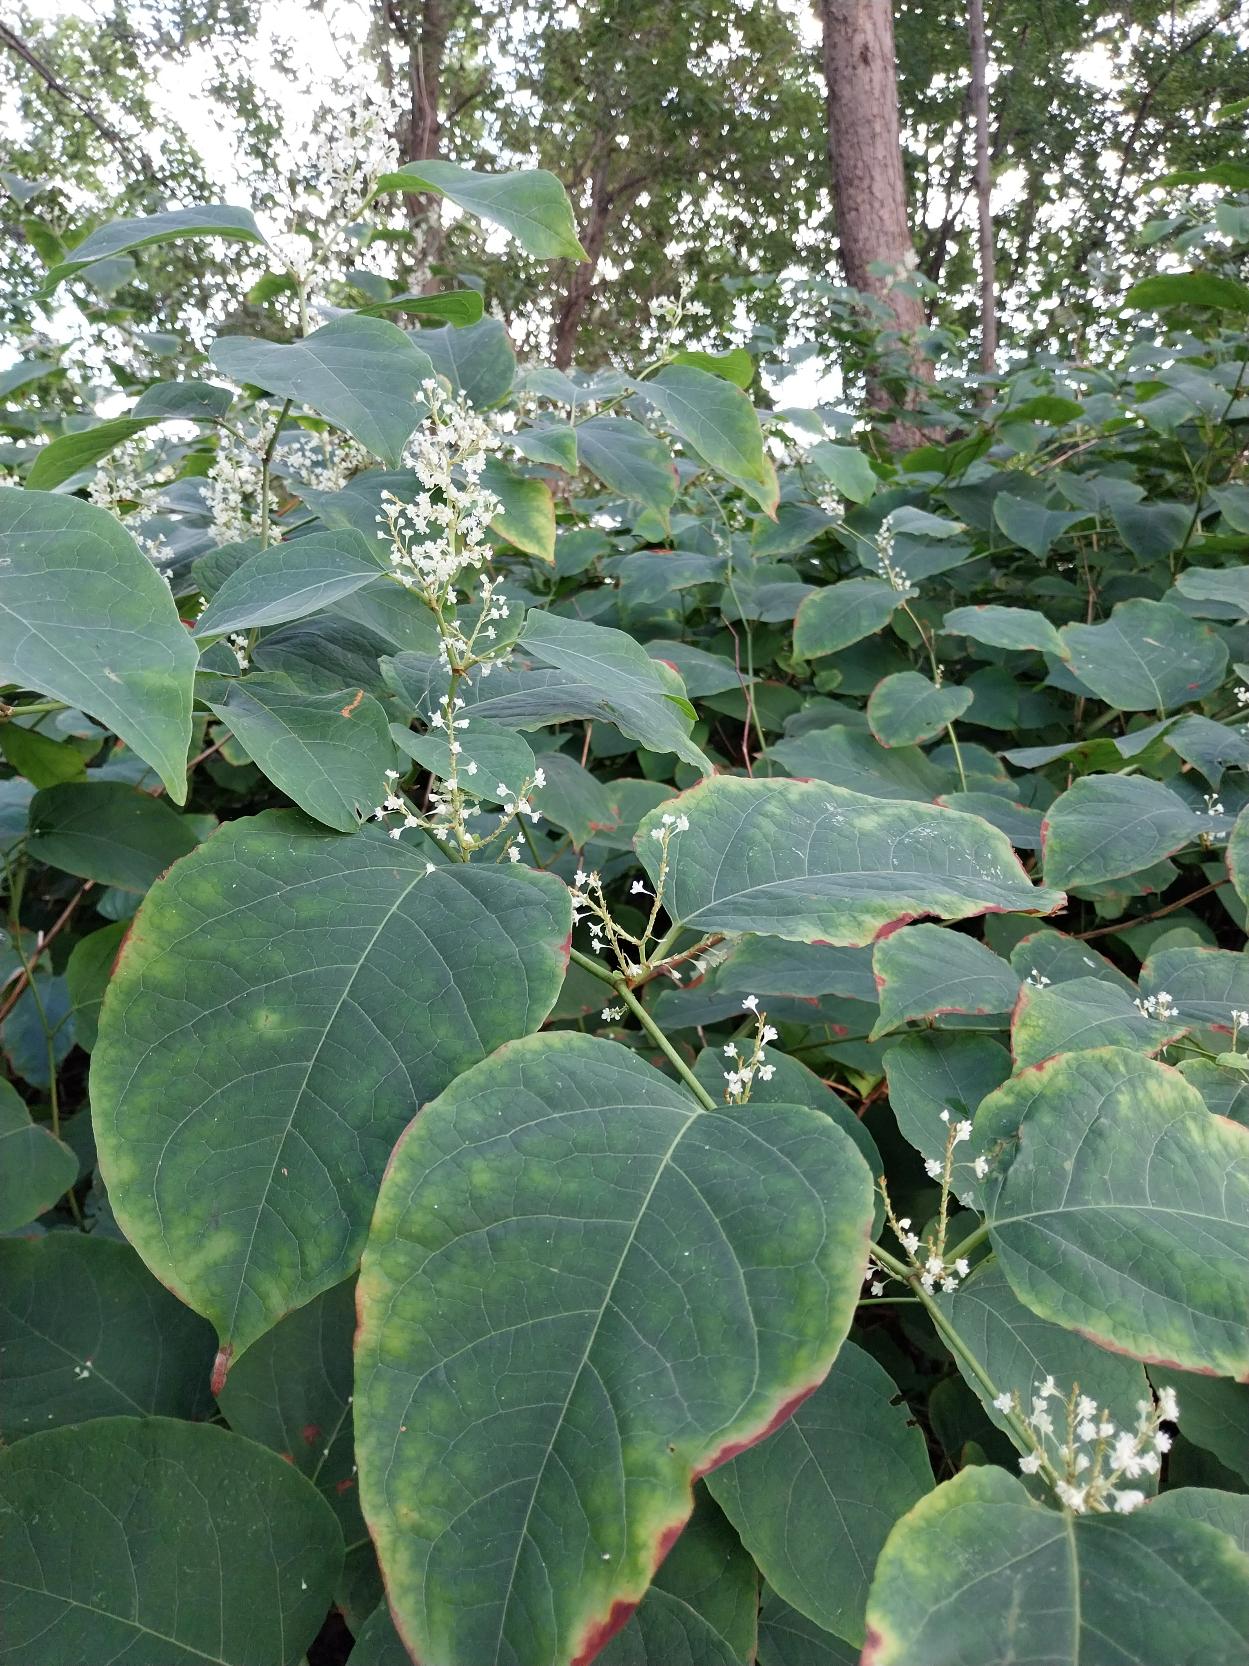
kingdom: Plantae
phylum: Tracheophyta
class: Magnoliopsida
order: Caryophyllales
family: Polygonaceae
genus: Reynoutria
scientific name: Reynoutria
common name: Pileurt (Reynoutria-slægten)
